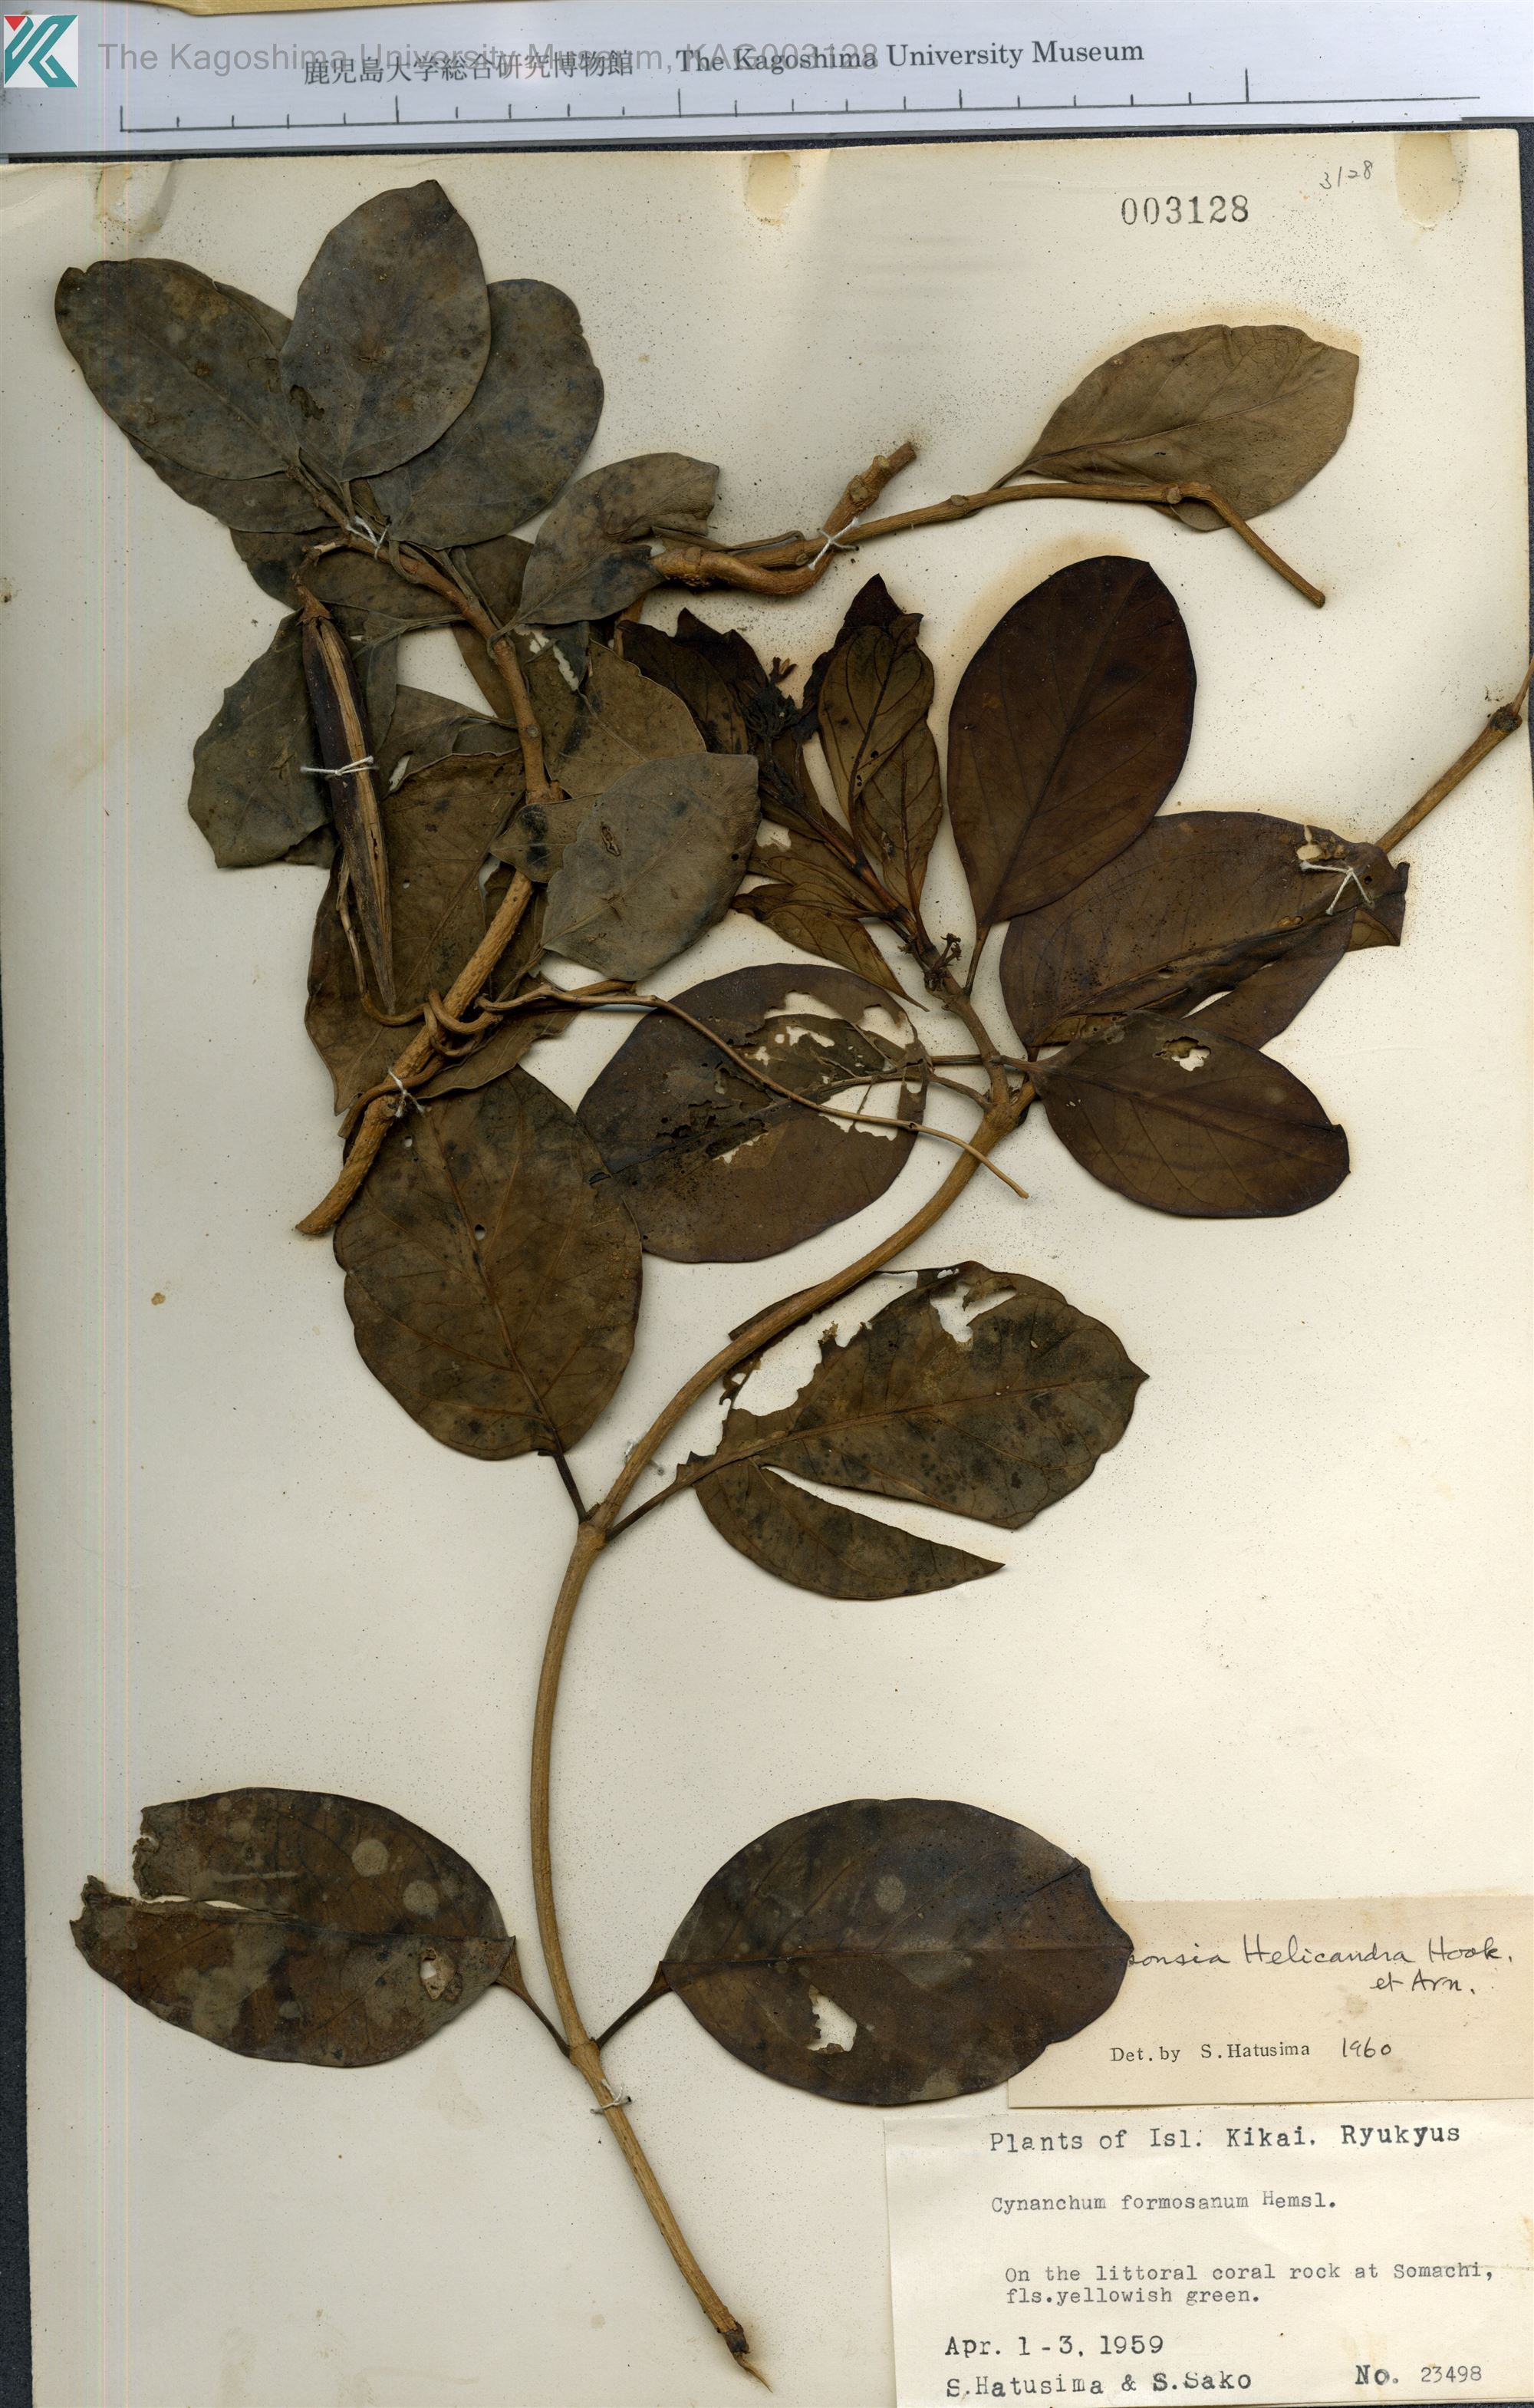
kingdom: Plantae
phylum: Tracheophyta
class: Magnoliopsida
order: Gentianales
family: Apocynaceae
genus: Parsonsia
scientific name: Parsonsia alboflavescens
